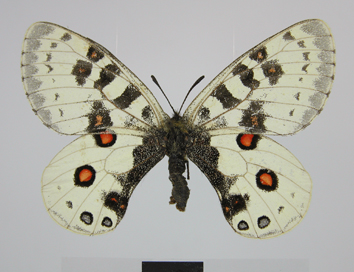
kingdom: Animalia
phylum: Arthropoda
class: Insecta
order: Lepidoptera
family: Papilionidae
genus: Parnassius
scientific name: Parnassius orleans
